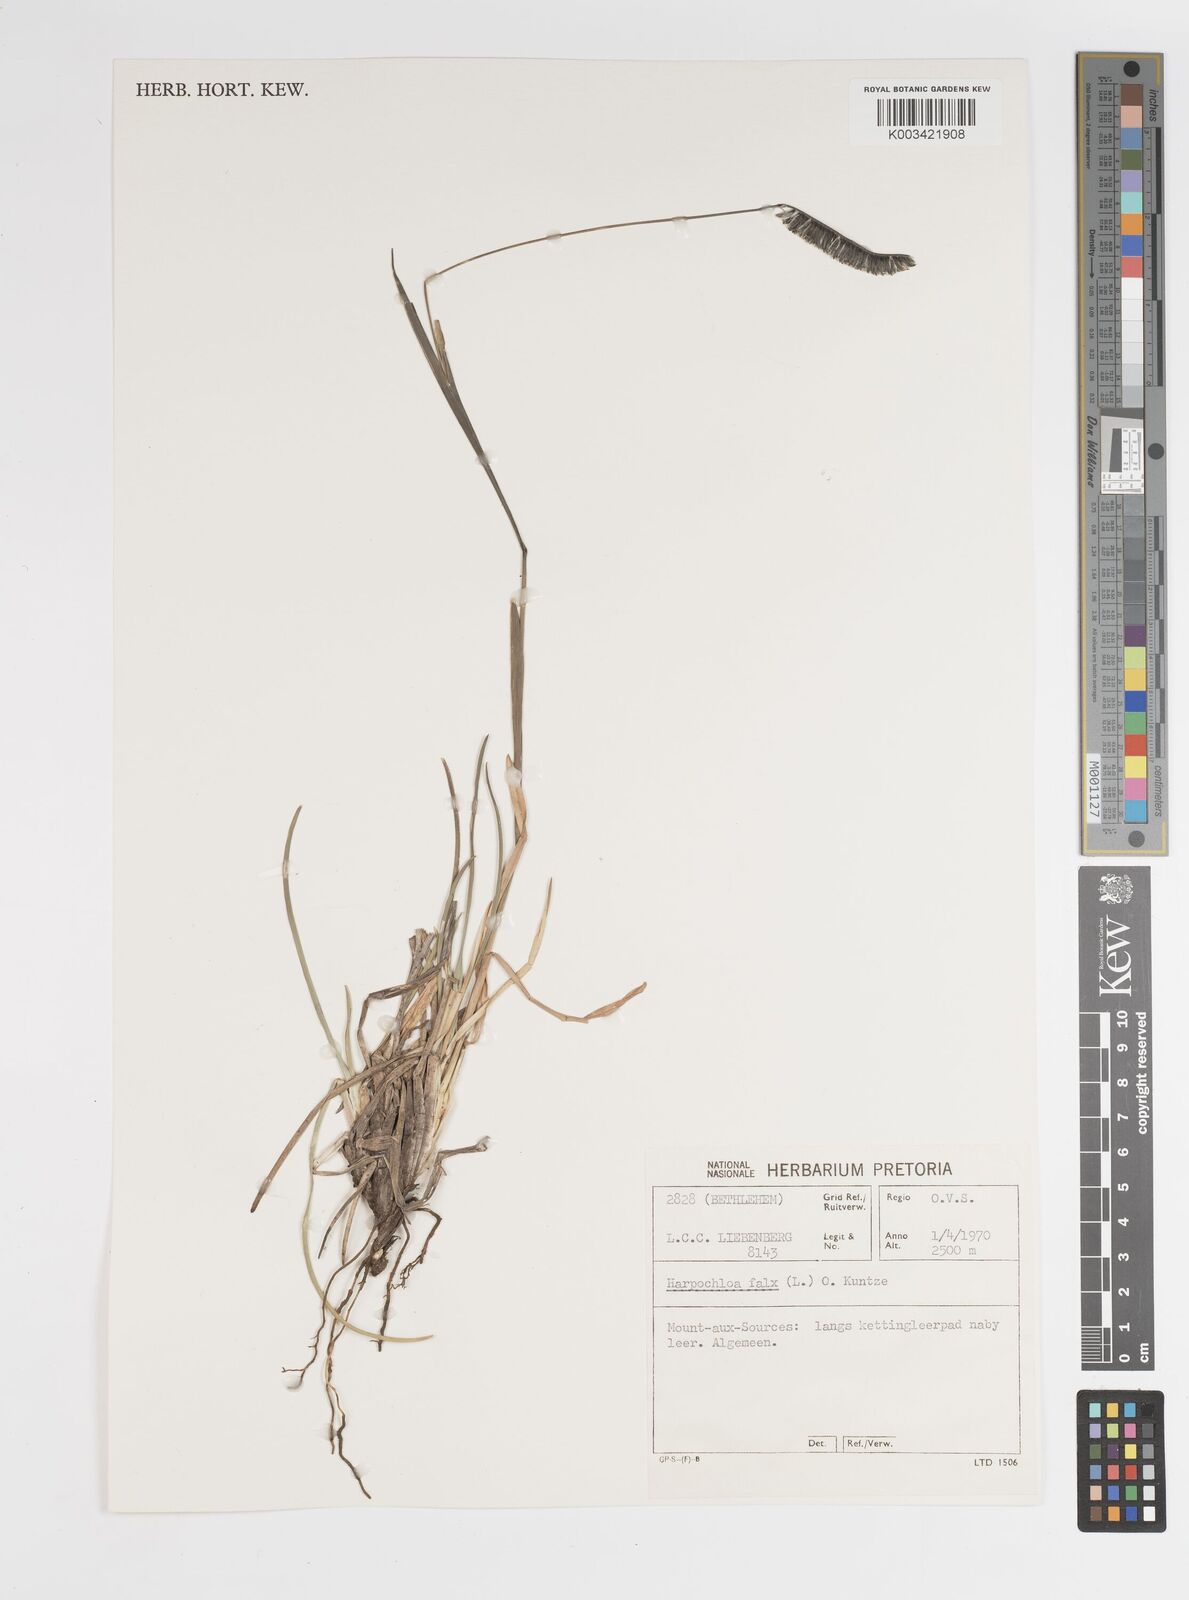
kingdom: Plantae
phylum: Tracheophyta
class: Liliopsida
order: Poales
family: Poaceae
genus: Harpochloa
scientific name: Harpochloa falx
